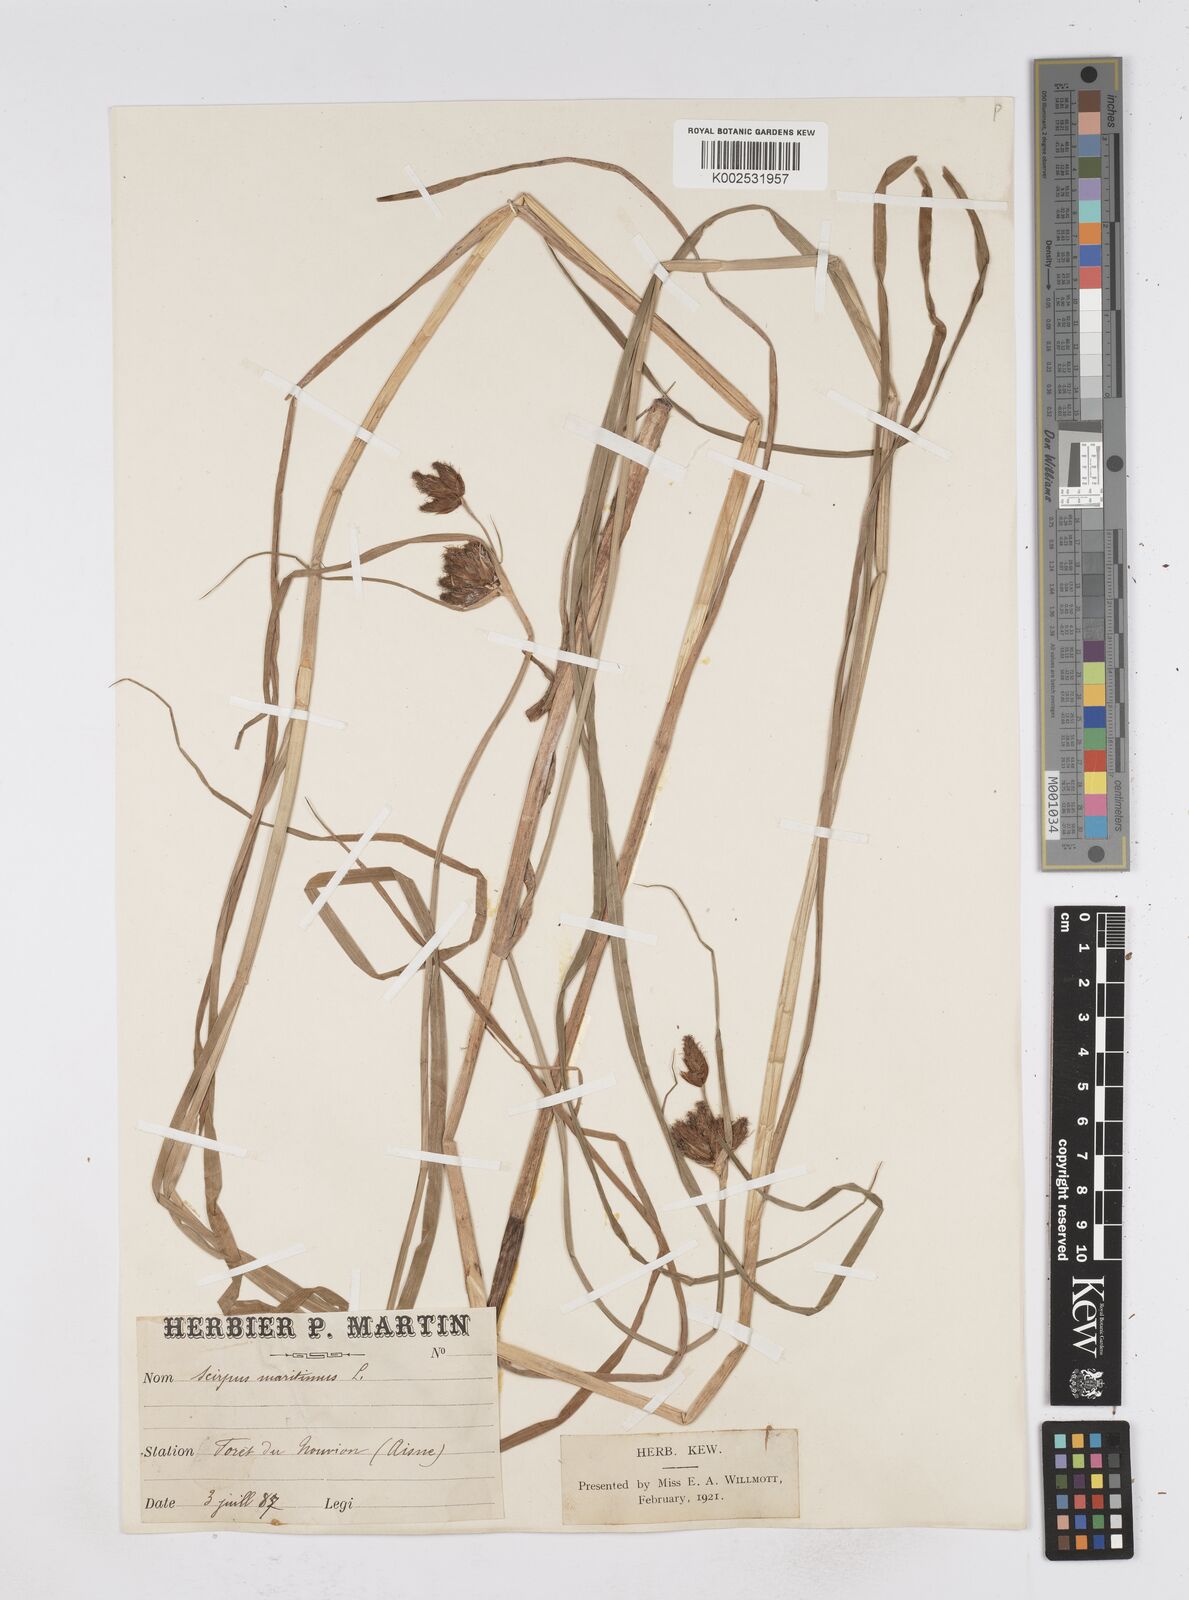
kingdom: Plantae
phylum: Tracheophyta
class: Liliopsida
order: Poales
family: Cyperaceae
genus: Bolboschoenus
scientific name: Bolboschoenus maritimus
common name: Sea club-rush
